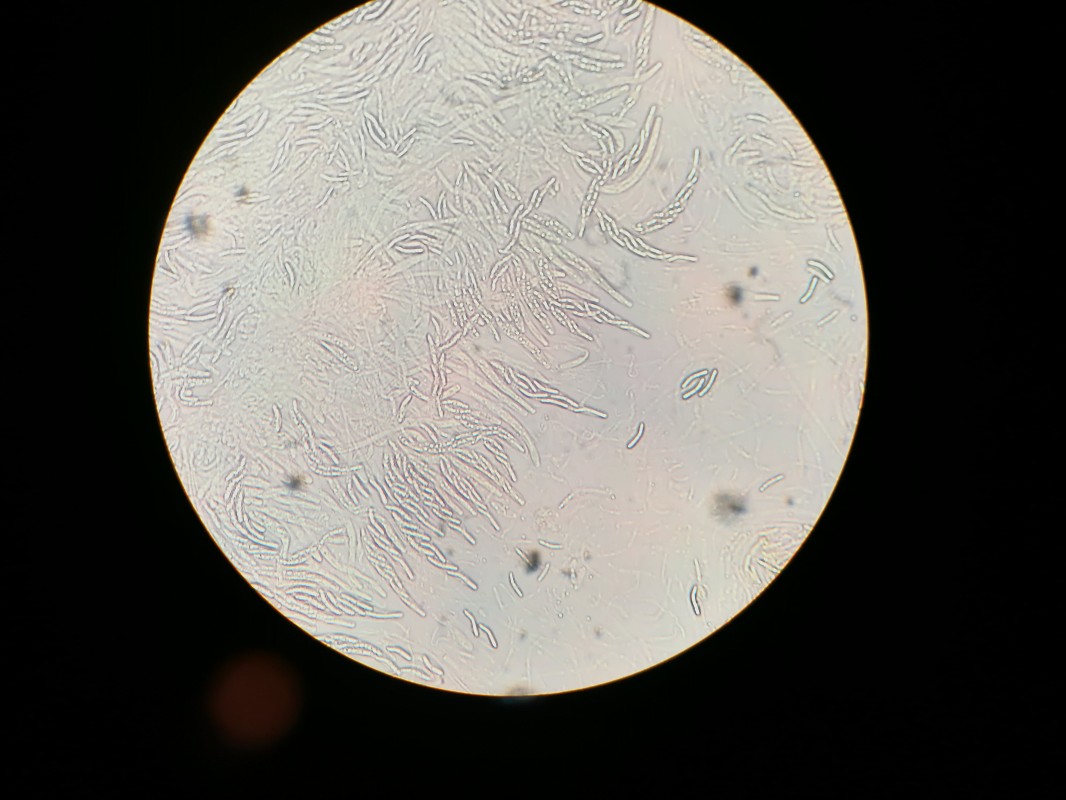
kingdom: Fungi
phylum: Ascomycota
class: Sordariomycetes
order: Sordariales
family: Helminthosphaeriaceae
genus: Ruzenia
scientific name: Ruzenia spermoides
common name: glat børstekerne
